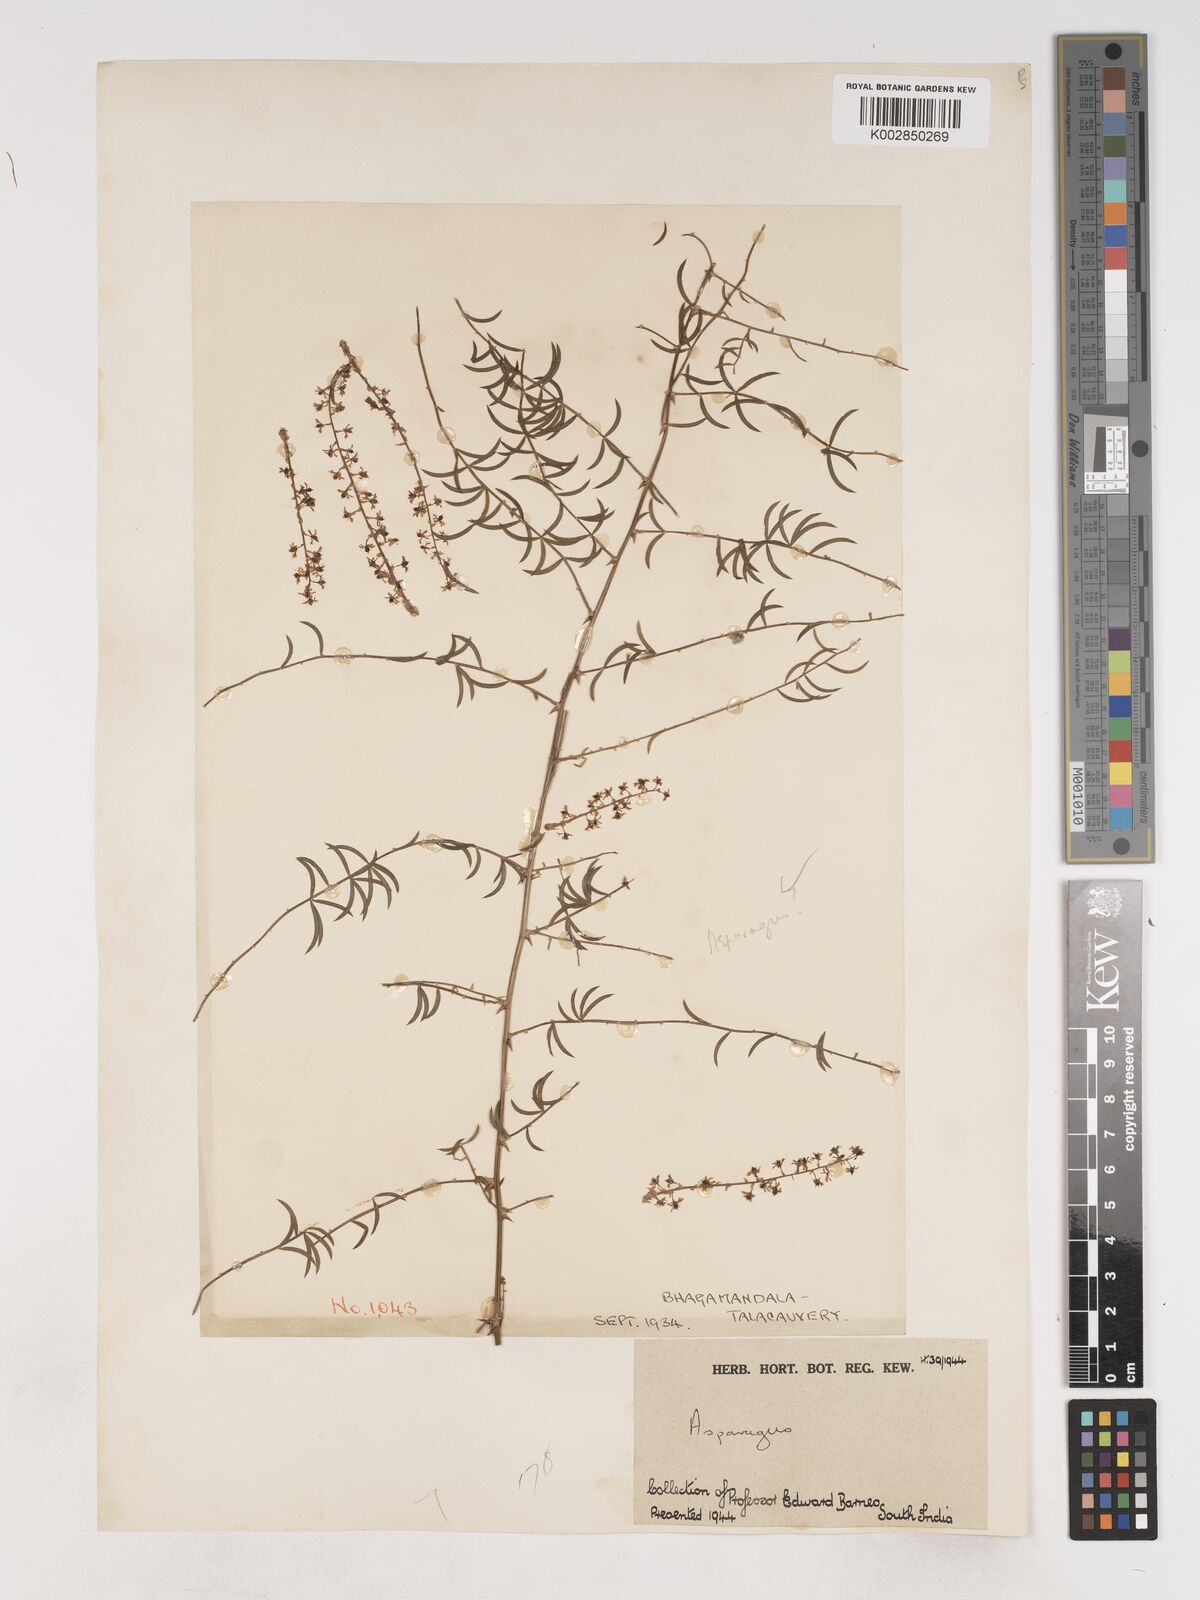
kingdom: Plantae
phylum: Tracheophyta
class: Liliopsida
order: Asparagales
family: Asparagaceae
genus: Asparagus
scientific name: Asparagus
